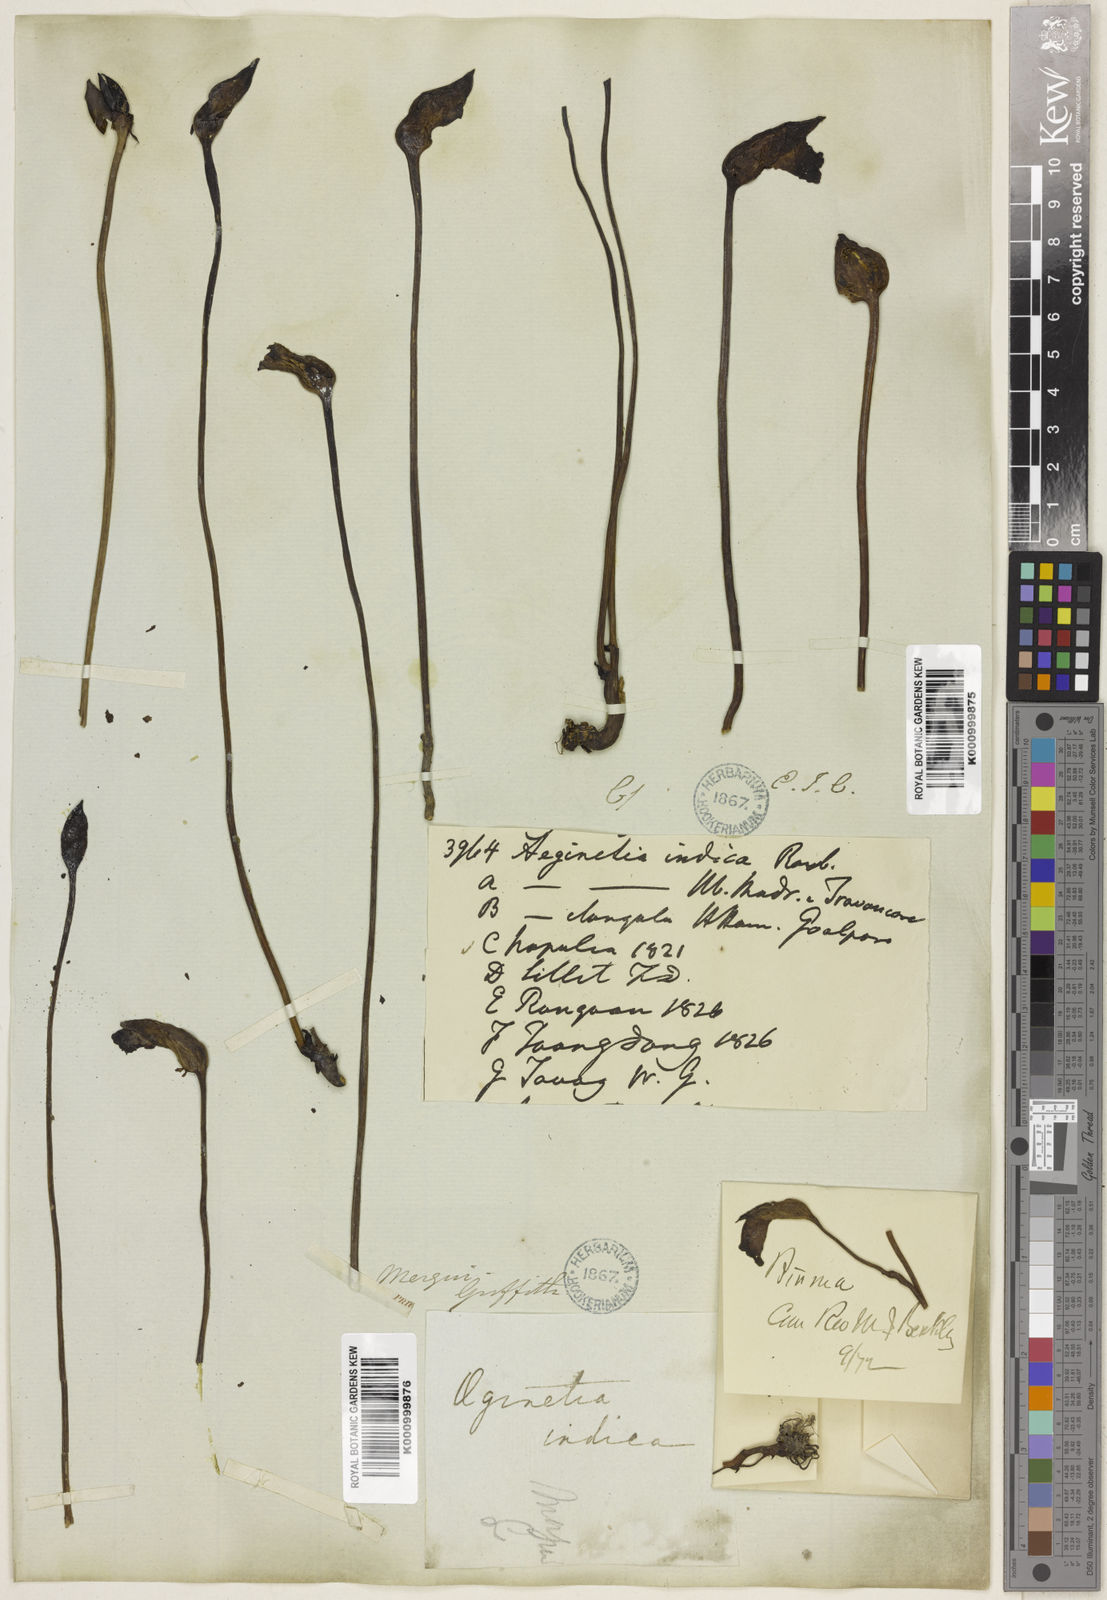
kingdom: Plantae
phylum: Tracheophyta
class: Magnoliopsida
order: Lamiales
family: Orobanchaceae
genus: Aeginetia
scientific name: Aeginetia
